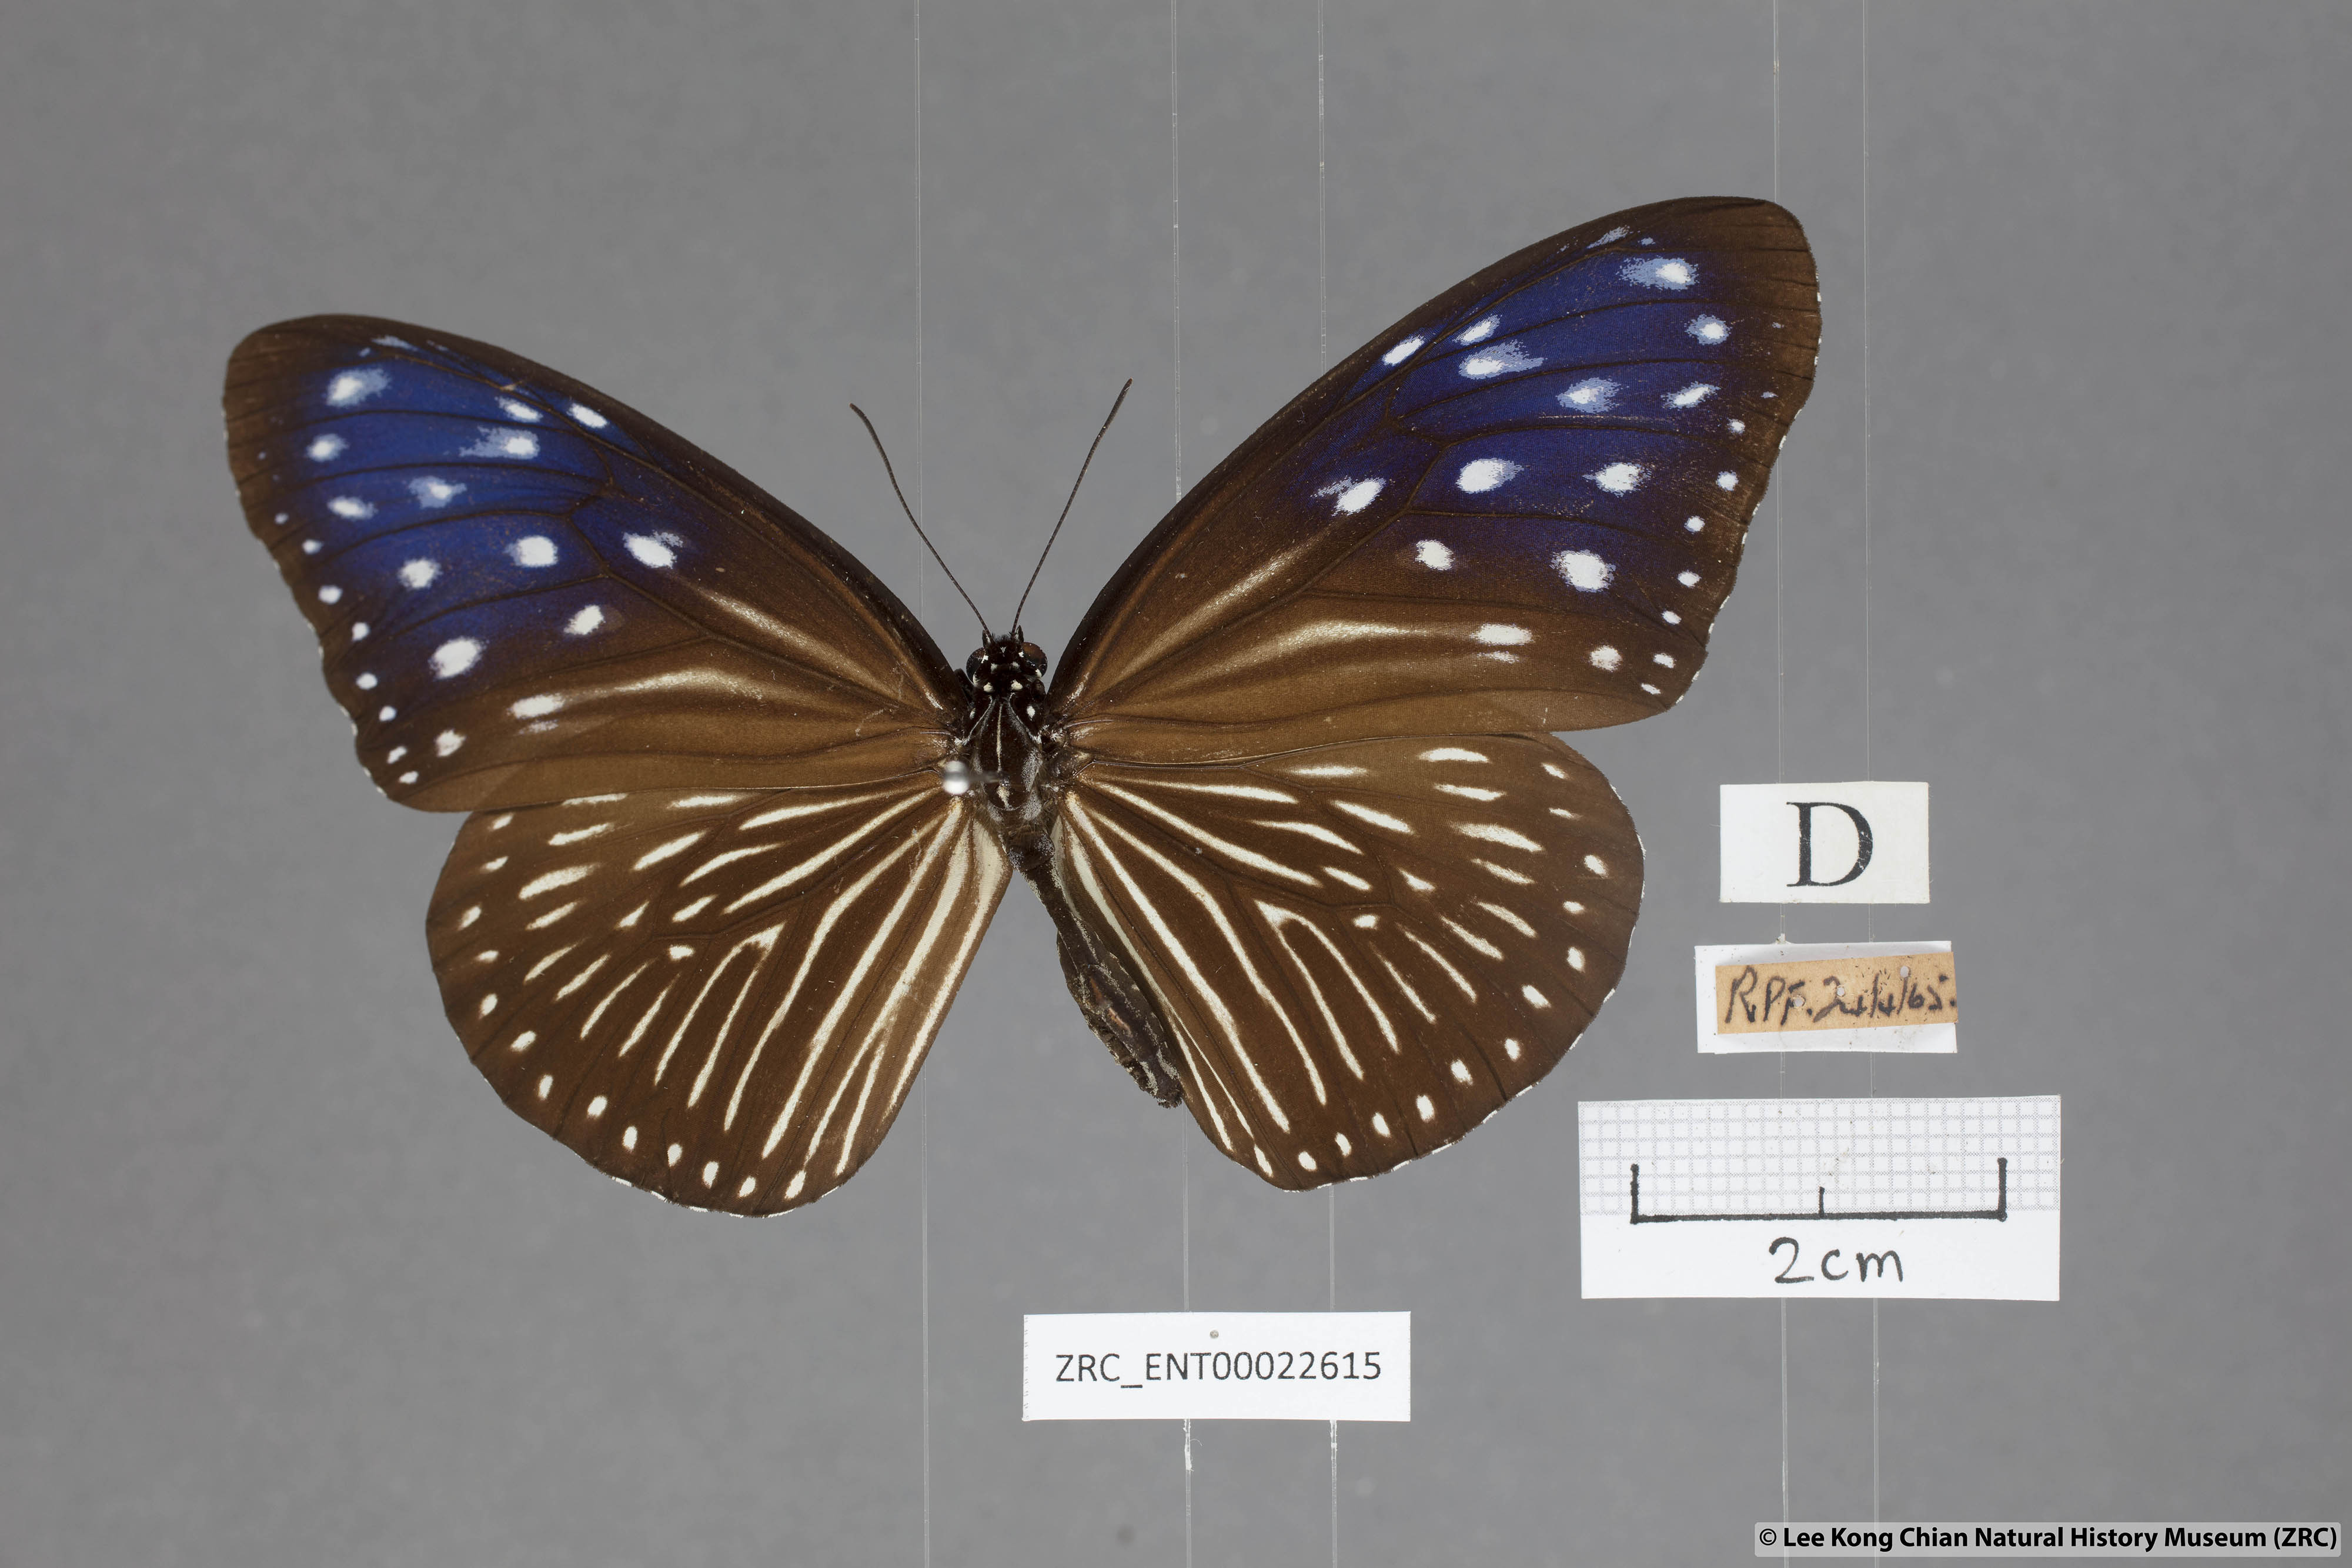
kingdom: Animalia
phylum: Arthropoda
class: Insecta
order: Lepidoptera
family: Nymphalidae
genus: Euploea
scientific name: Euploea mulciber
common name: Striped blue crow butterfly
